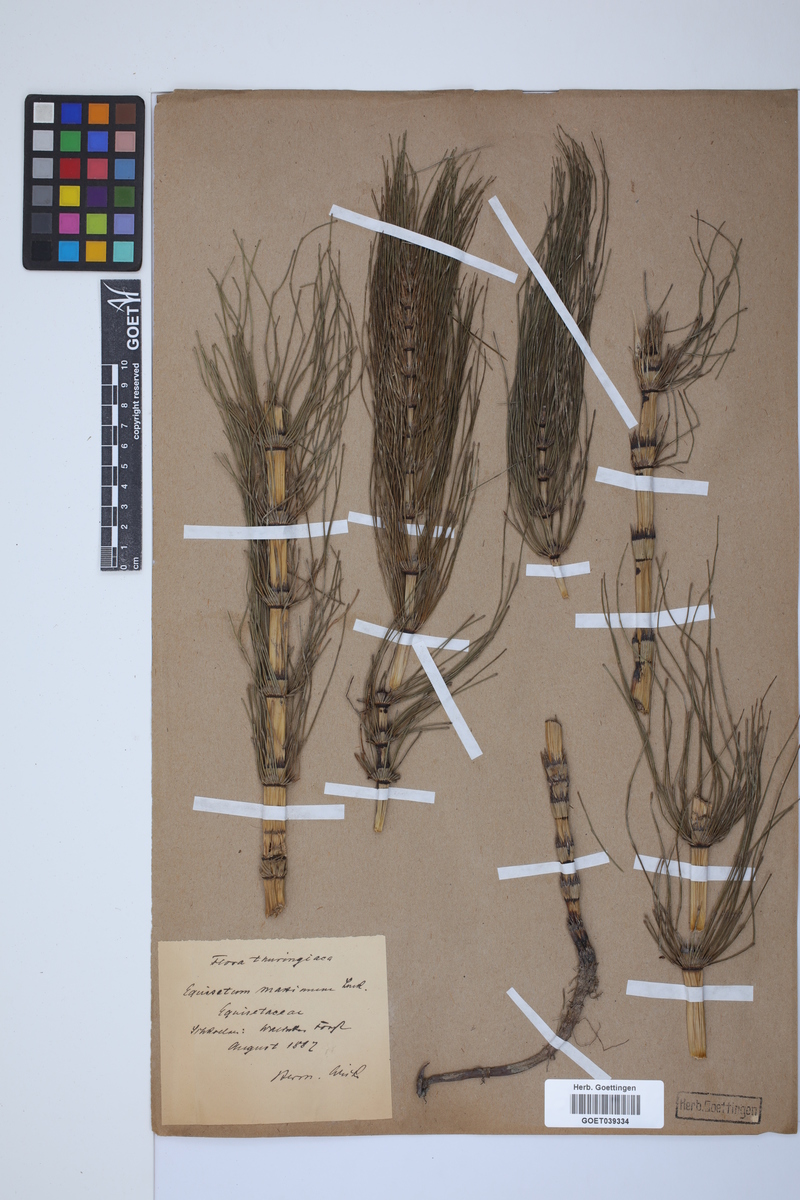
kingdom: Plantae
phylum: Tracheophyta
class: Polypodiopsida
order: Equisetales
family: Equisetaceae
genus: Equisetum
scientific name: Equisetum telmateia
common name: Great horsetail
